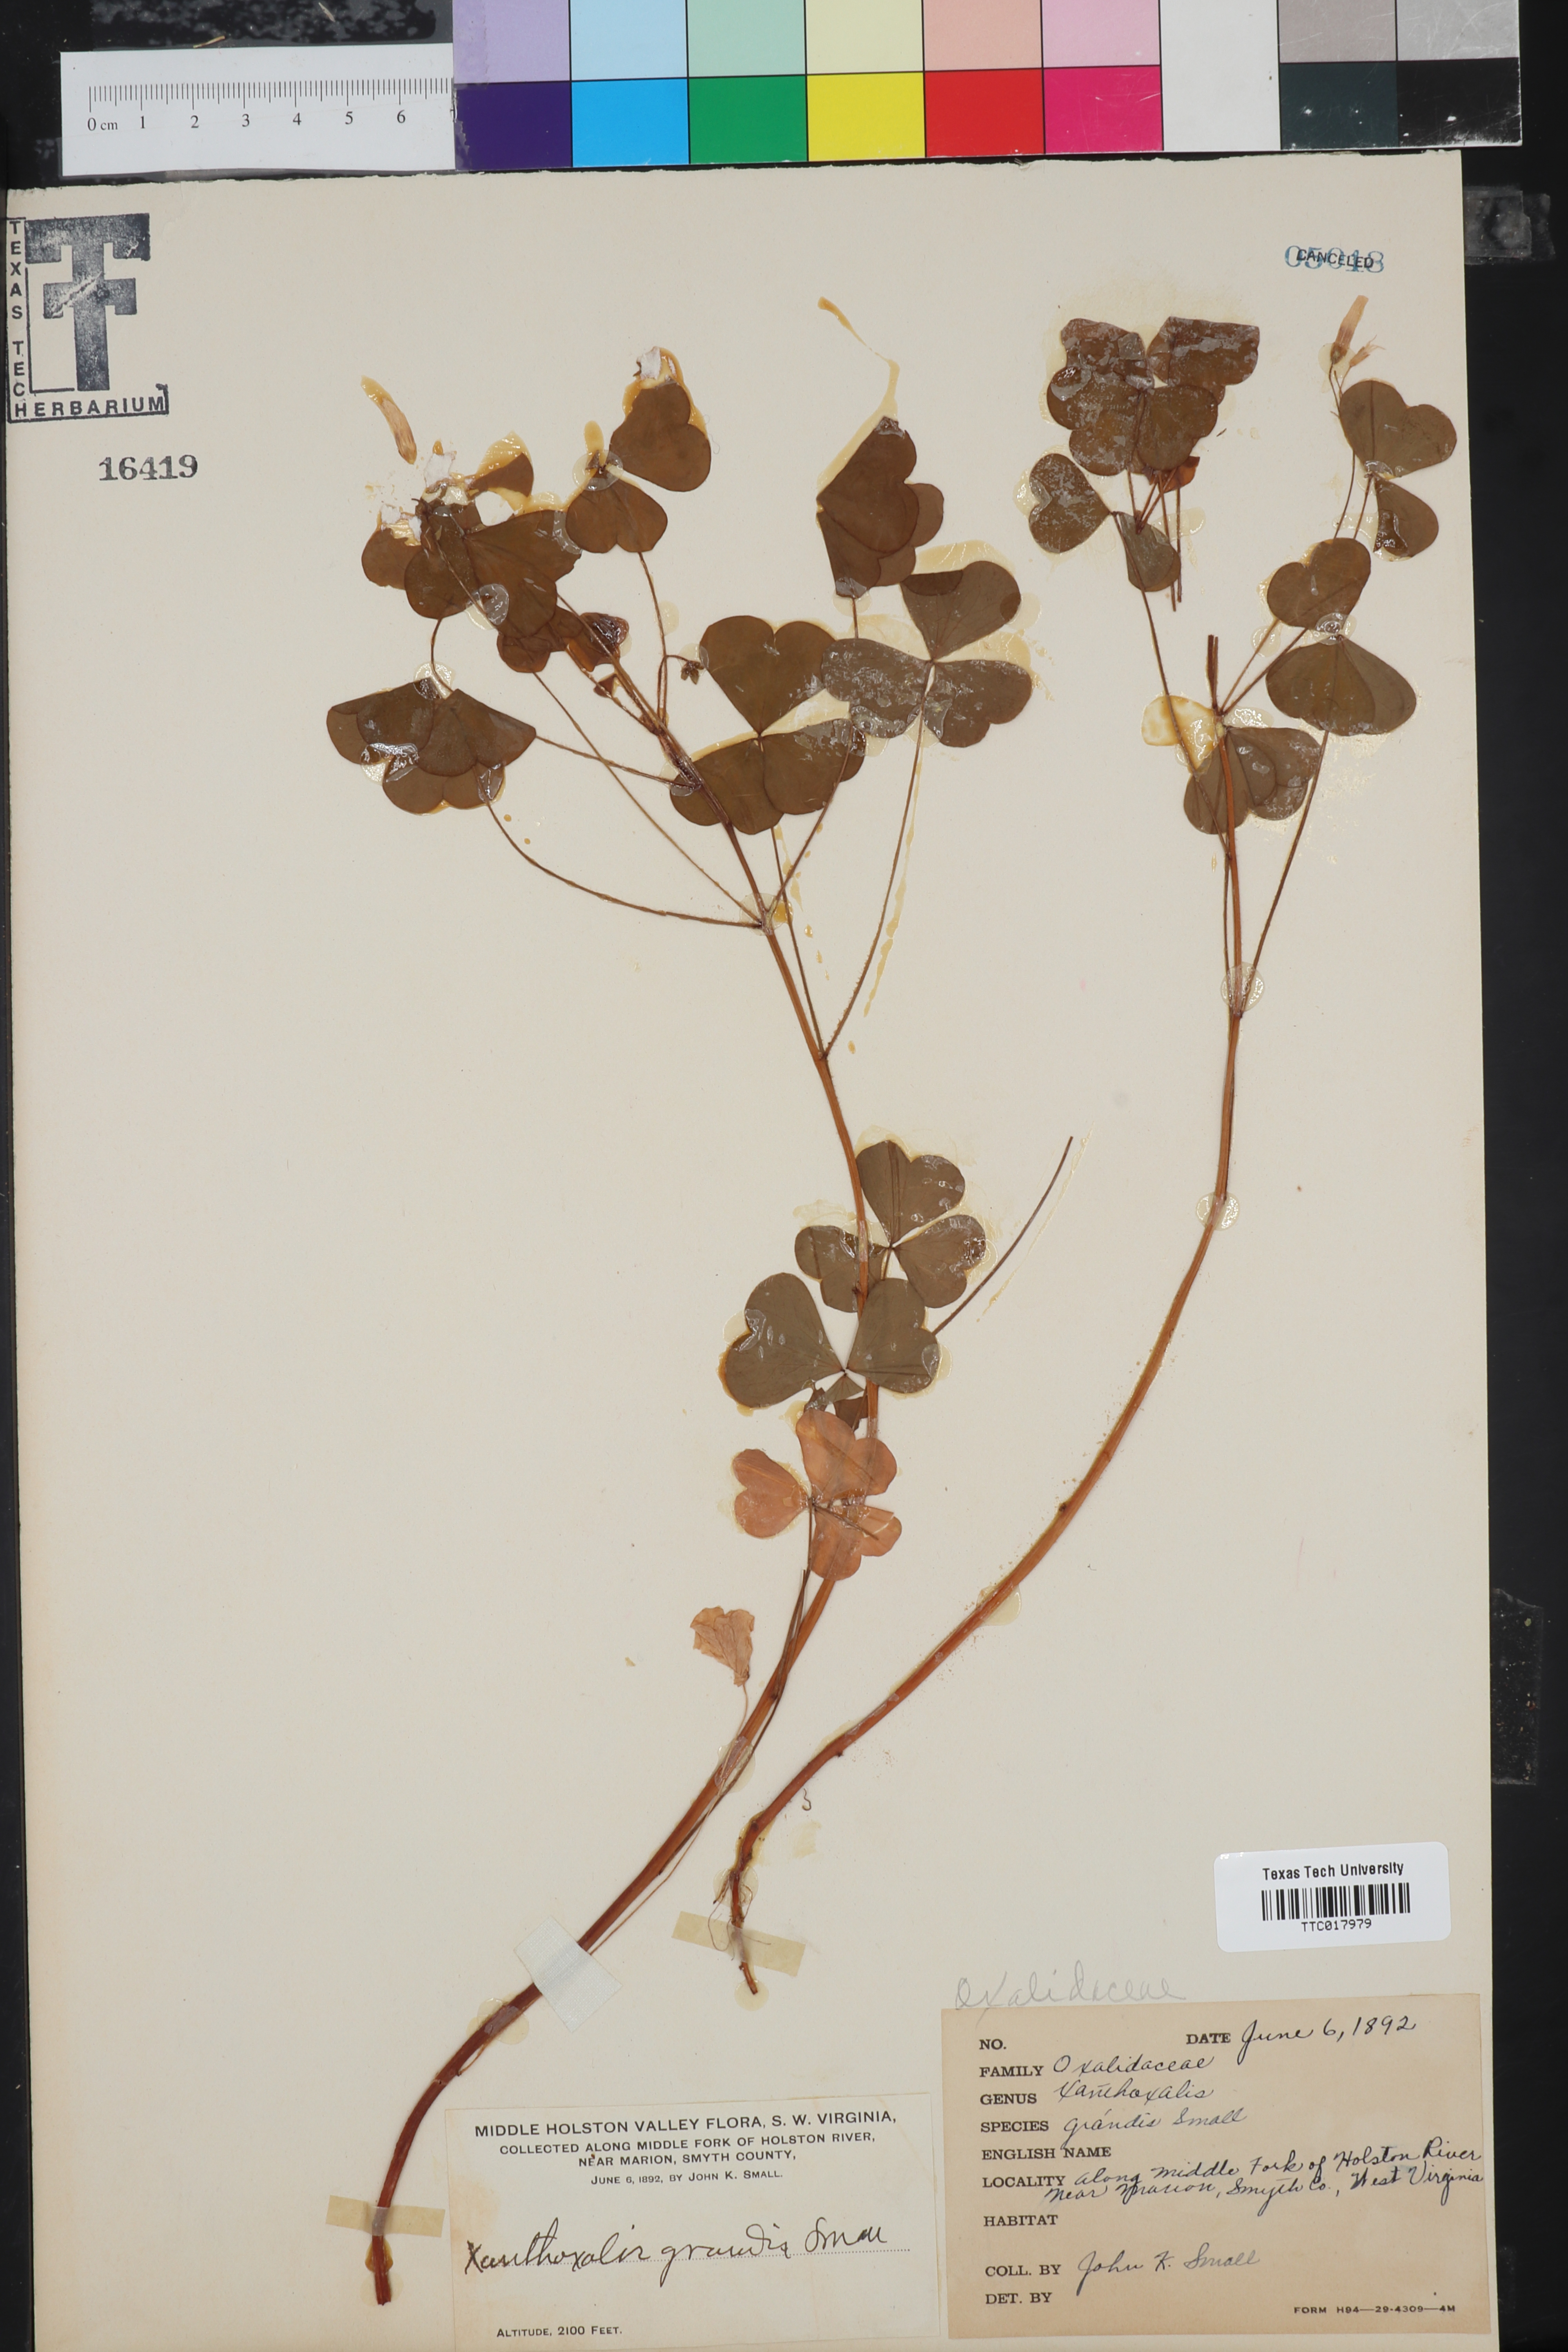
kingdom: Plantae
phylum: Tracheophyta
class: Magnoliopsida
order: Oxalidales
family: Oxalidaceae
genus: Oxalis
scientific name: Oxalis grandis
